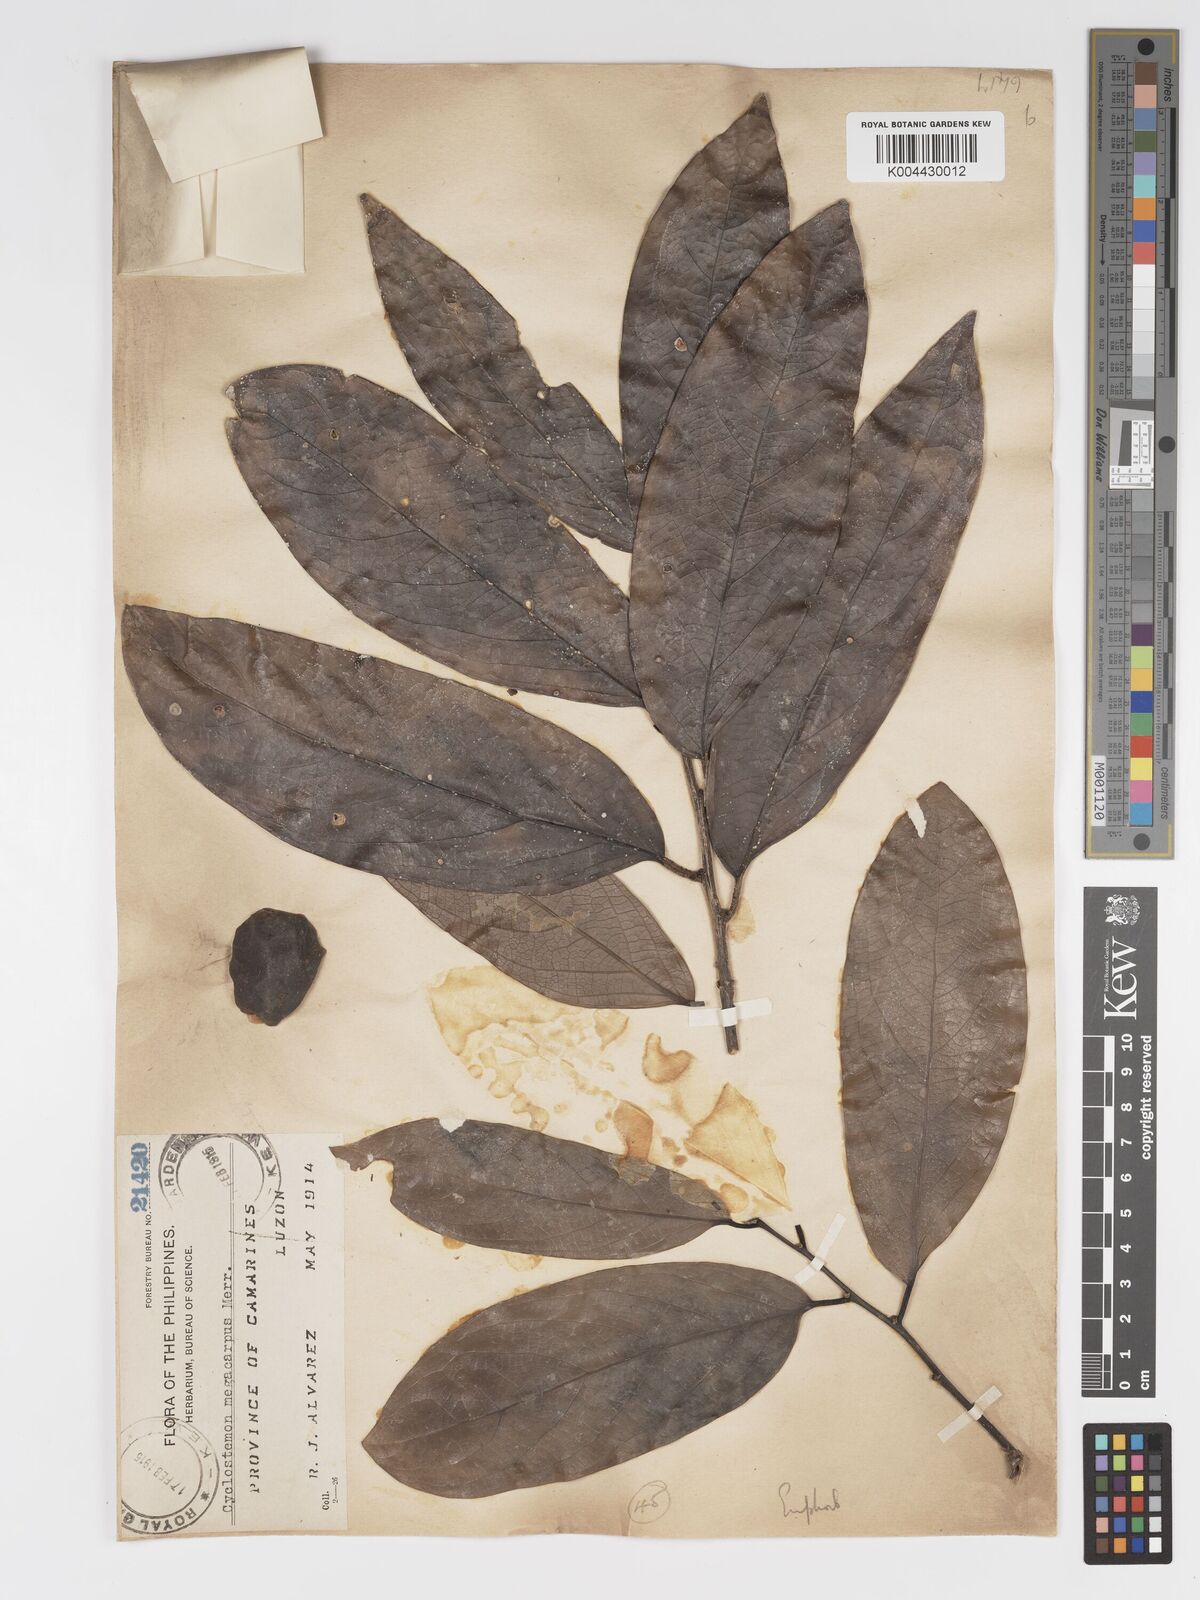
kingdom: Plantae
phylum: Tracheophyta
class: Magnoliopsida
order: Malpighiales
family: Putranjivaceae
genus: Drypetes
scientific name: Drypetes grandifolia
